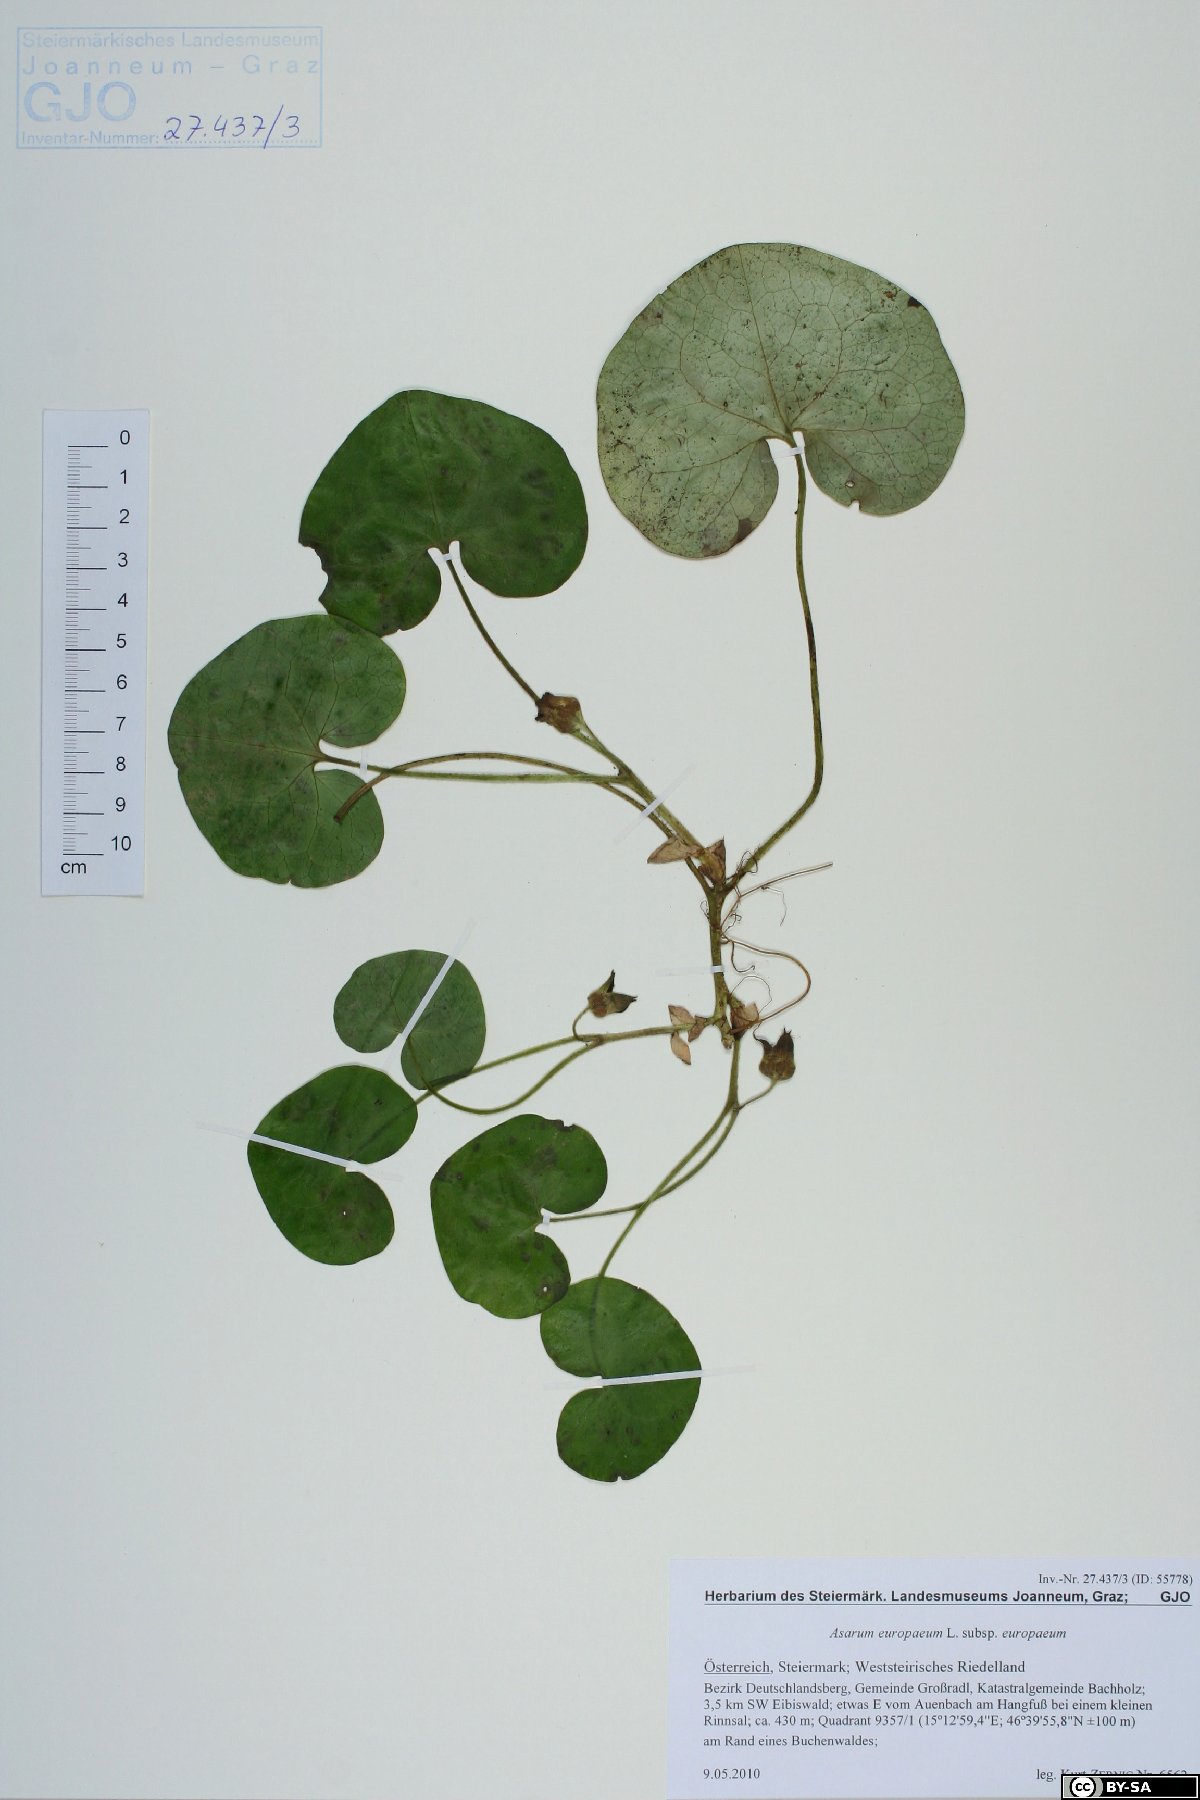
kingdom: Plantae
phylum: Tracheophyta
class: Magnoliopsida
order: Piperales
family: Aristolochiaceae
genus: Asarum
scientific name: Asarum europaeum
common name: Asarabacca
